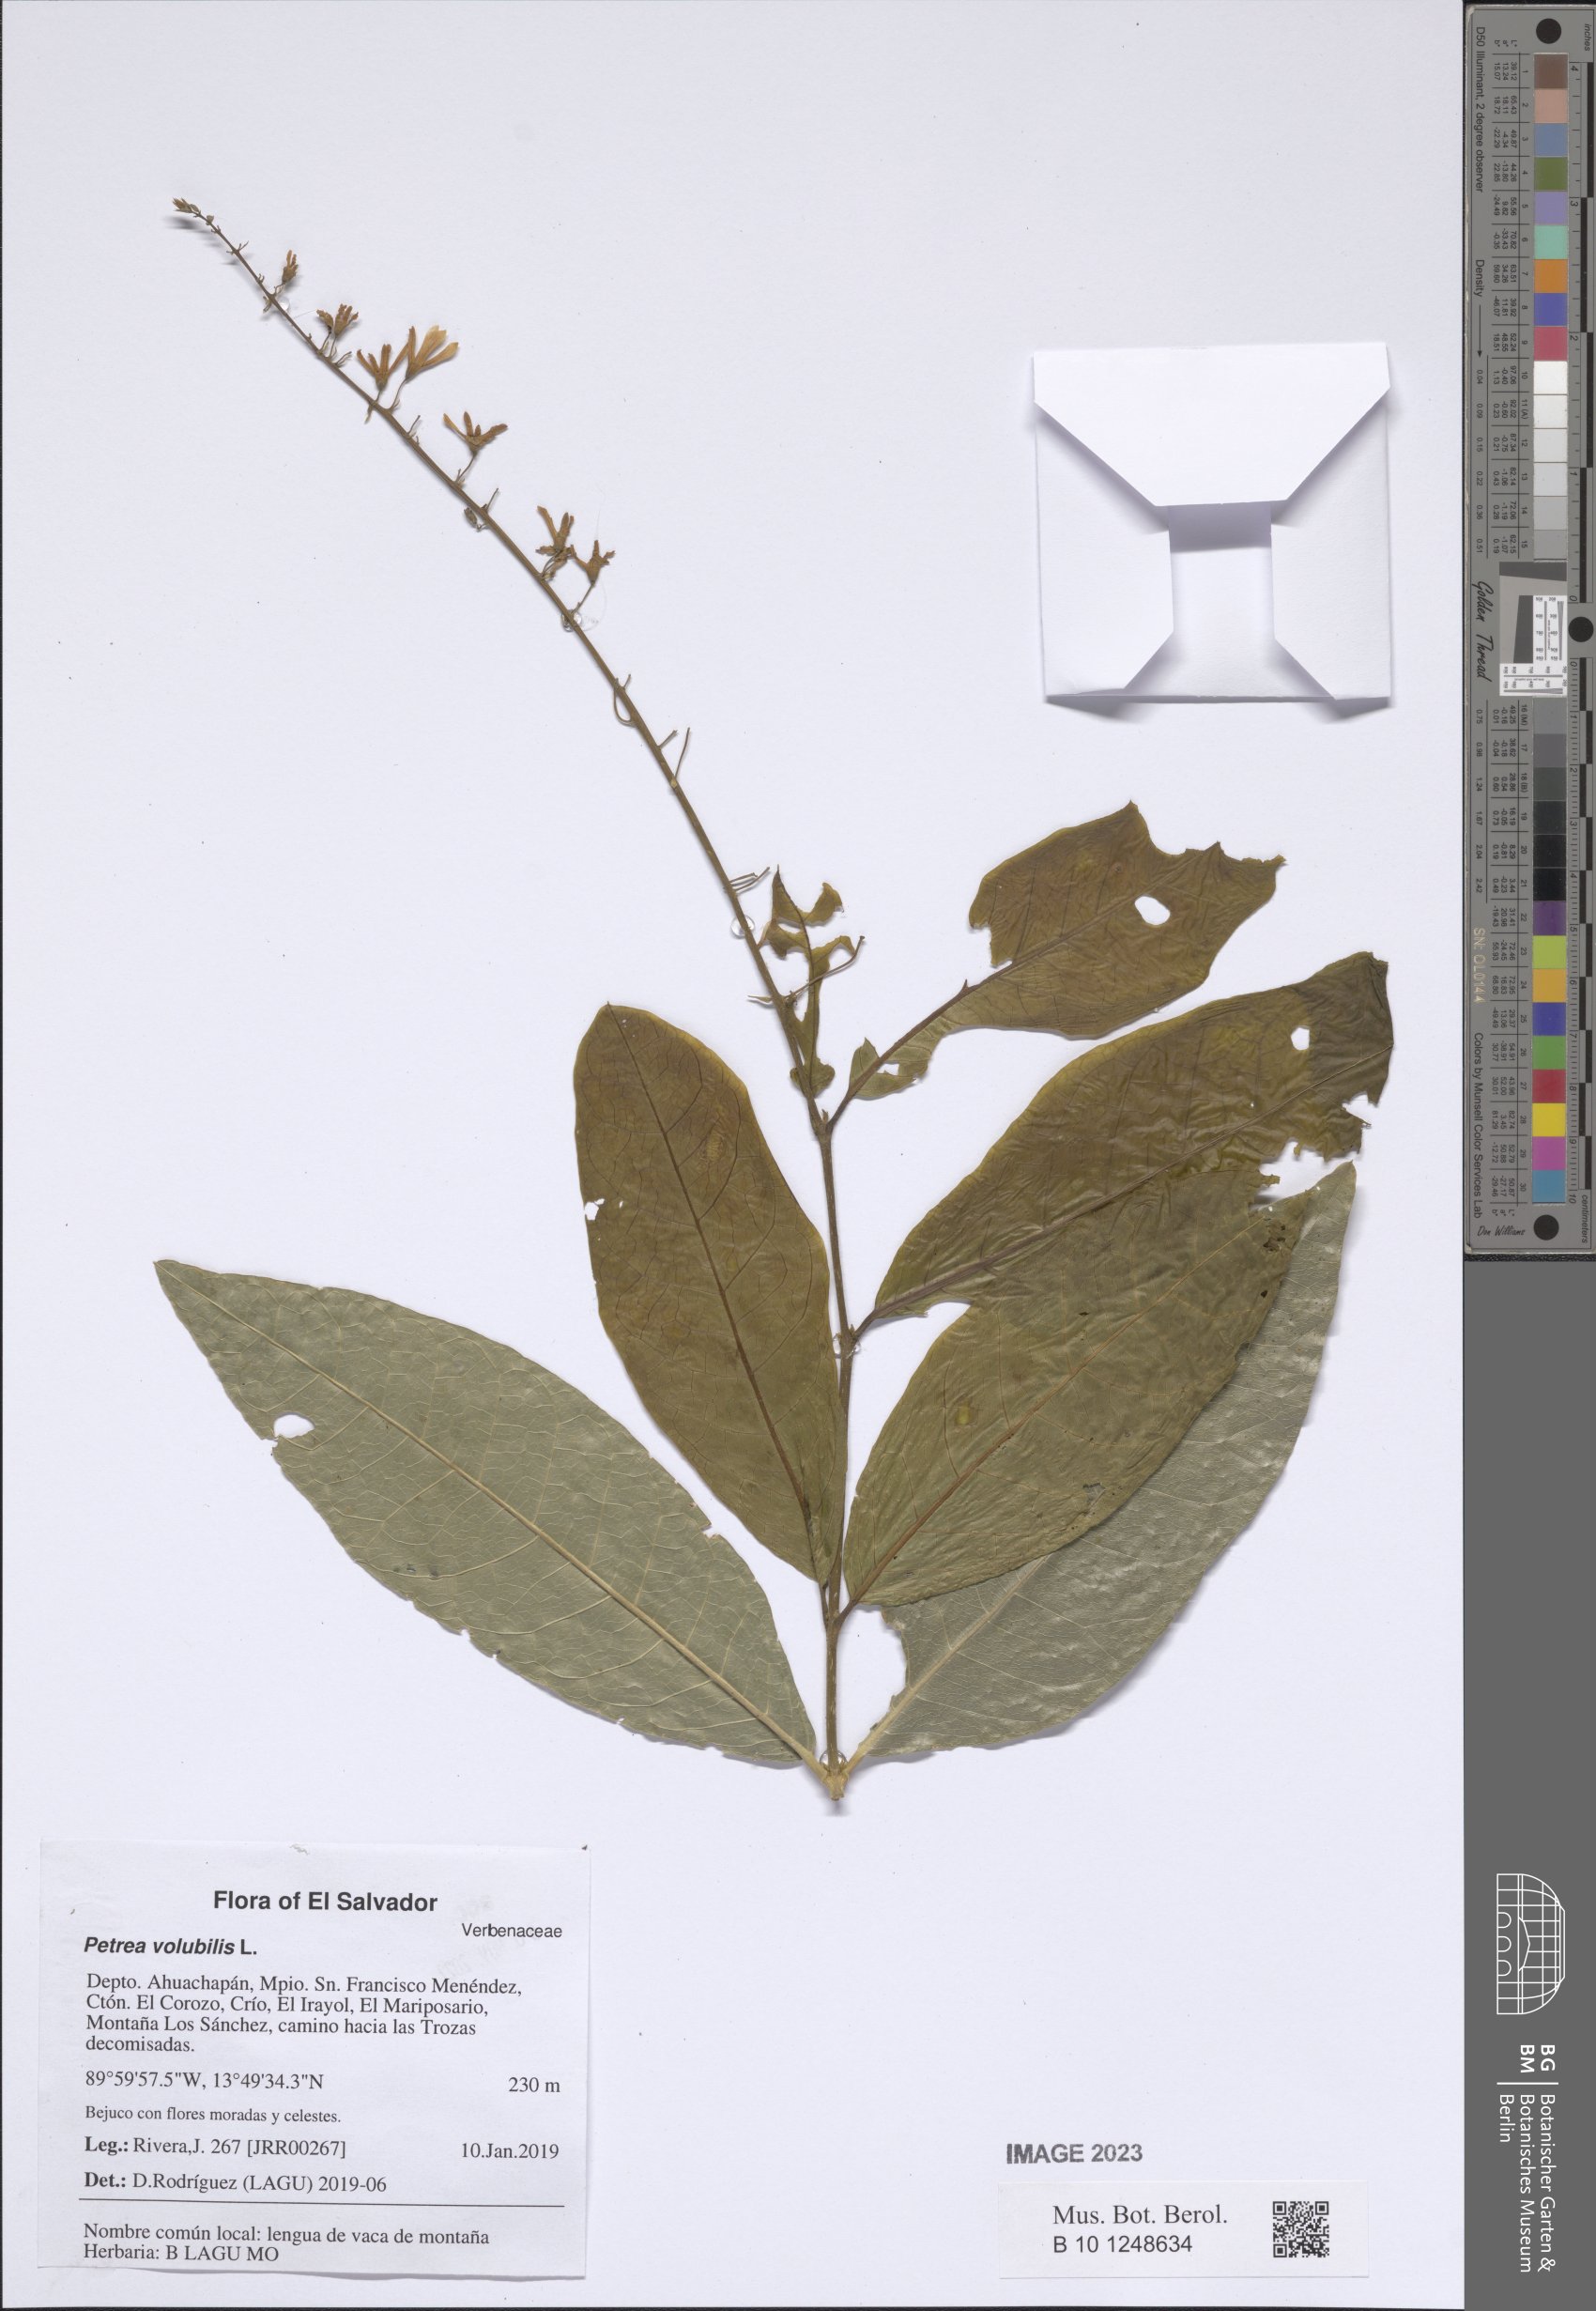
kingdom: Plantae
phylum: Tracheophyta
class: Magnoliopsida
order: Lamiales
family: Verbenaceae
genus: Petrea
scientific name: Petrea volubilis
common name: Queen's-wreath
